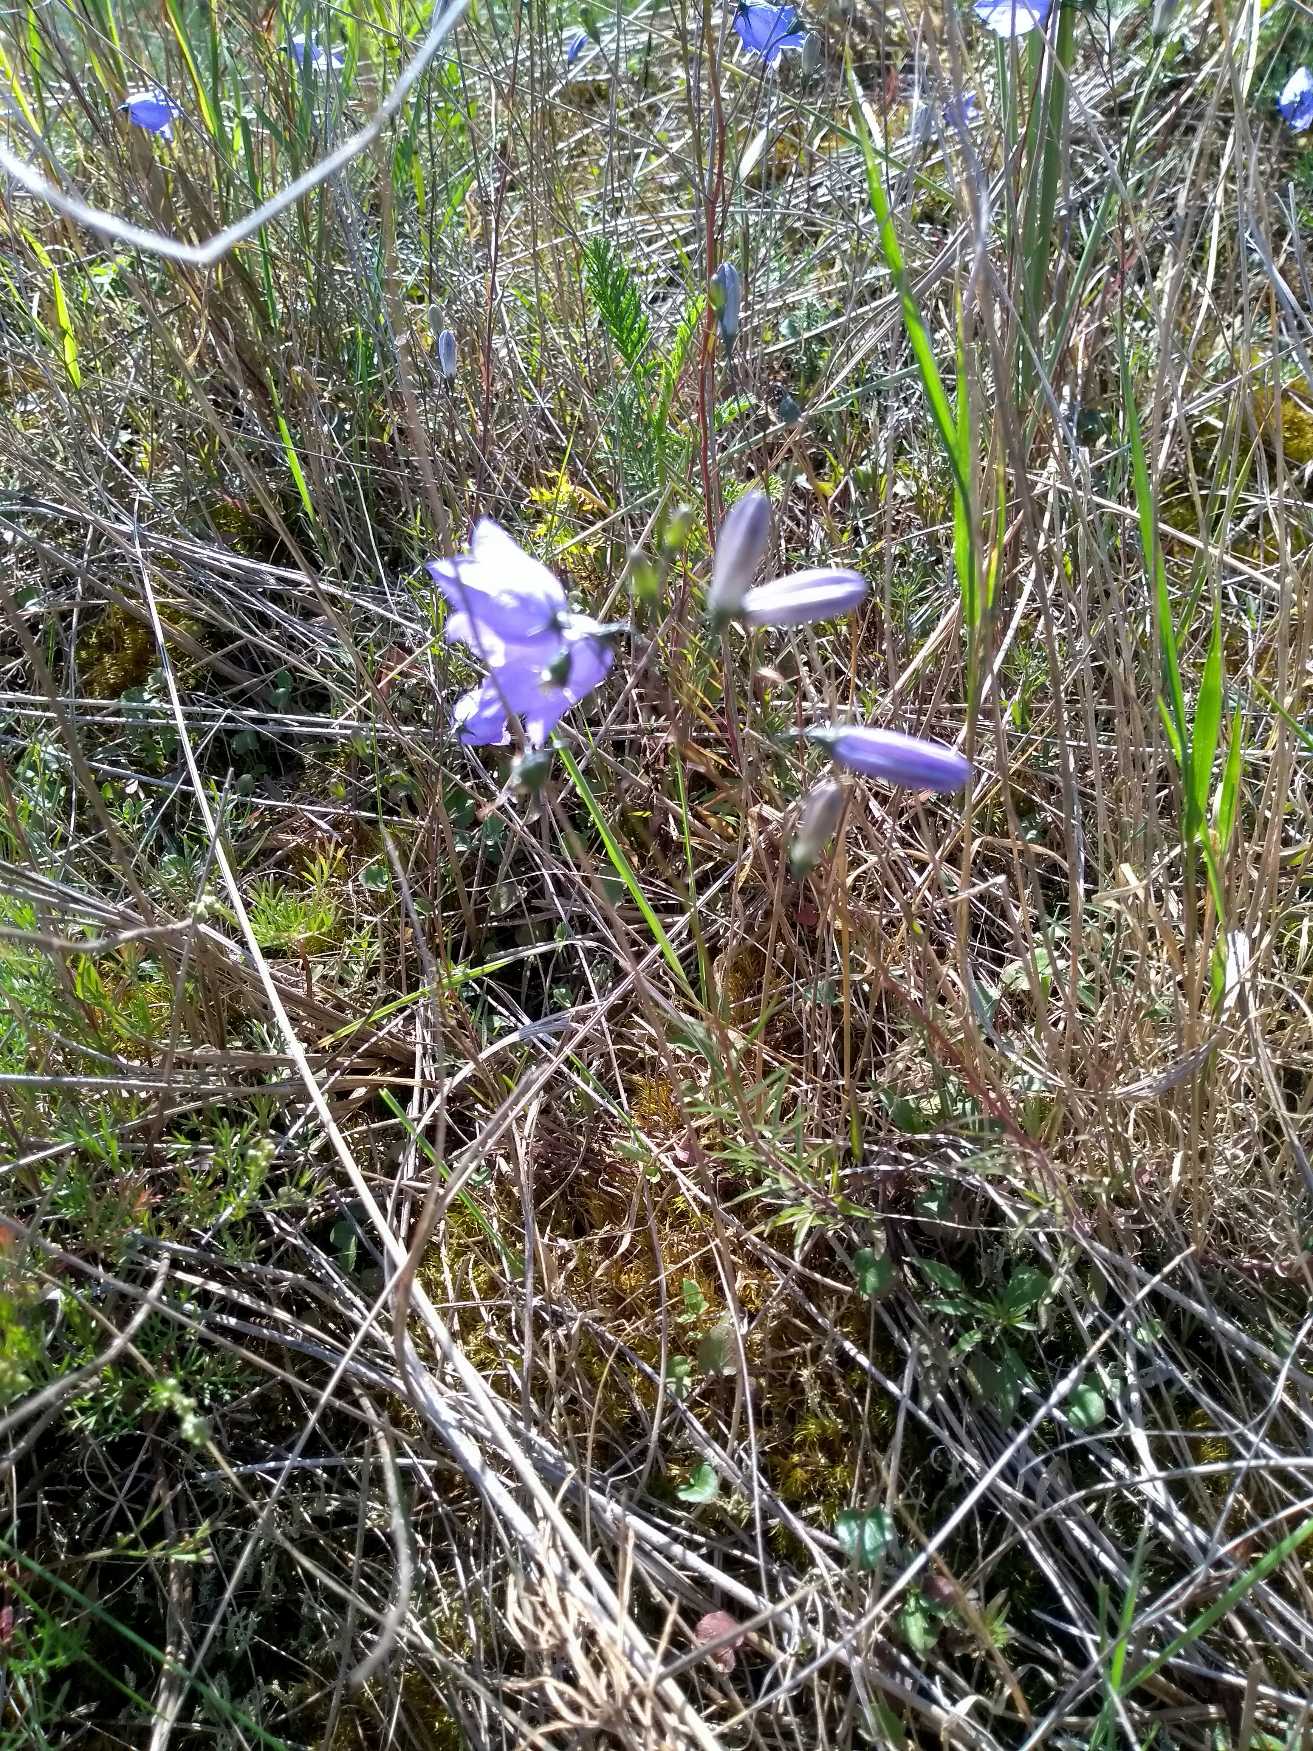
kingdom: Plantae
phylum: Tracheophyta
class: Magnoliopsida
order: Asterales
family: Campanulaceae
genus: Campanula
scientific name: Campanula rotundifolia
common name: Liden klokke
